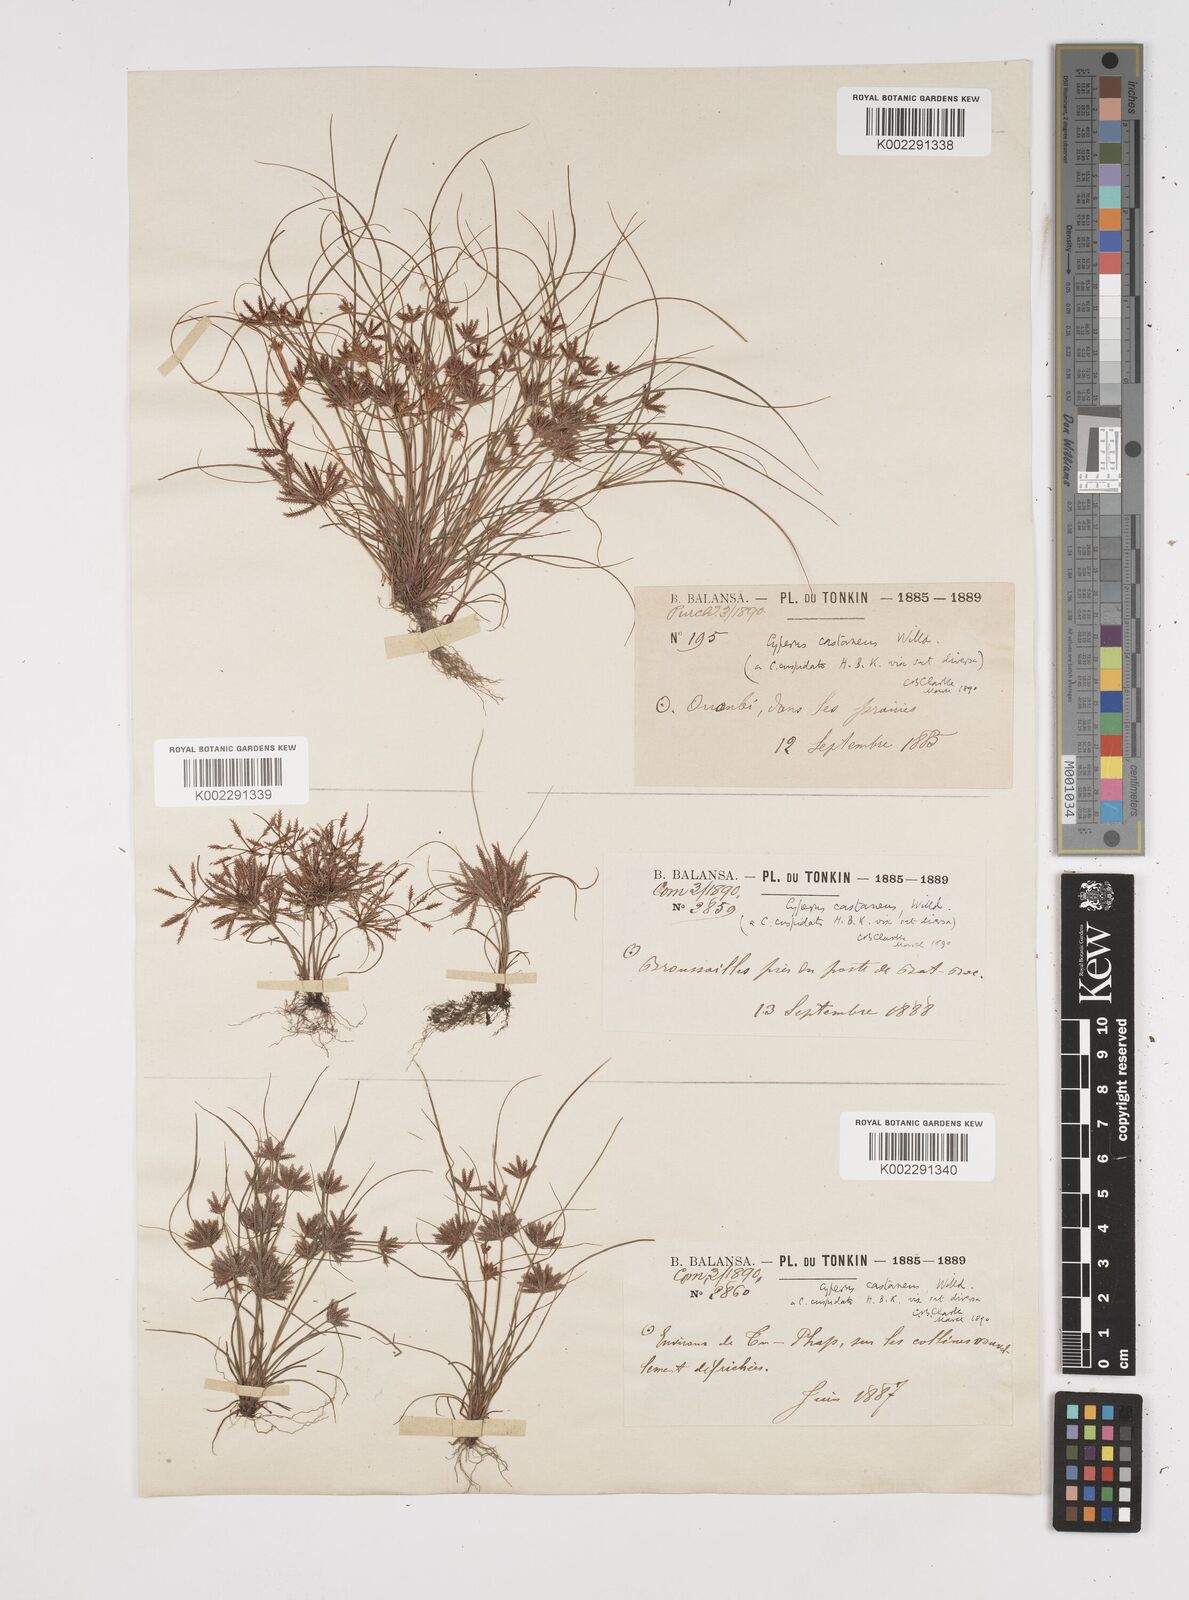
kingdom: Plantae
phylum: Tracheophyta
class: Liliopsida
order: Poales
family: Cyperaceae
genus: Cyperus
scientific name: Cyperus castaneus
